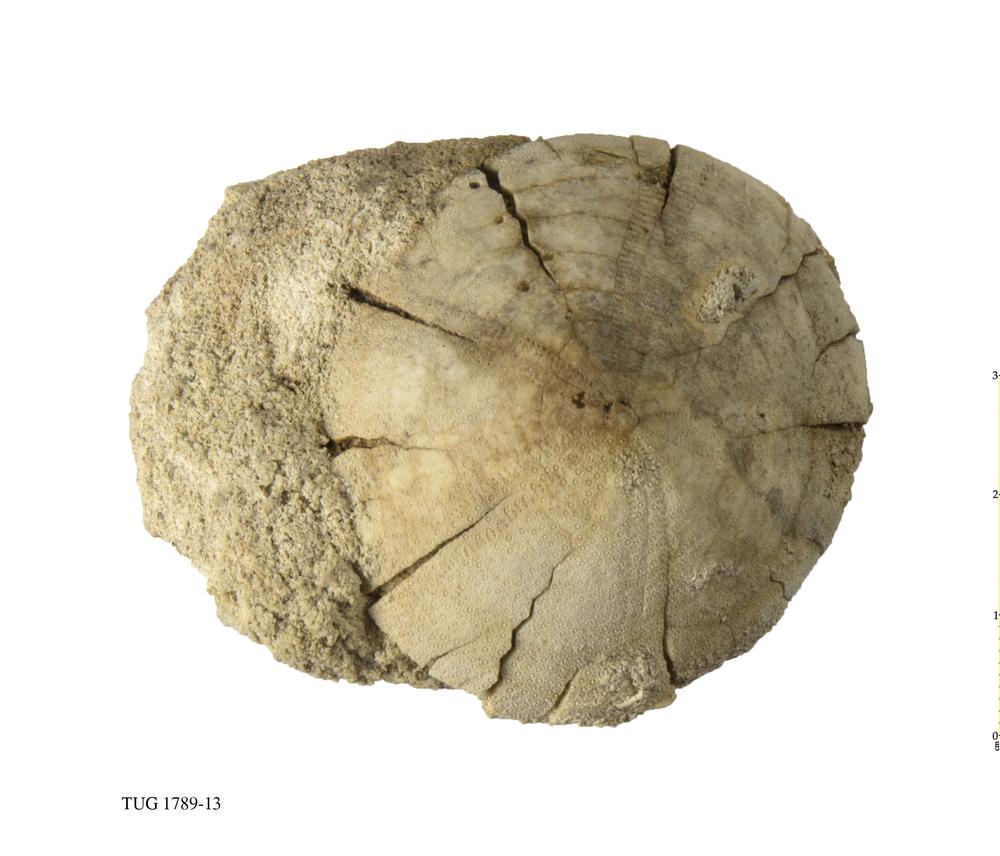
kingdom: Animalia
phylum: Echinodermata
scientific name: Echinodermata
